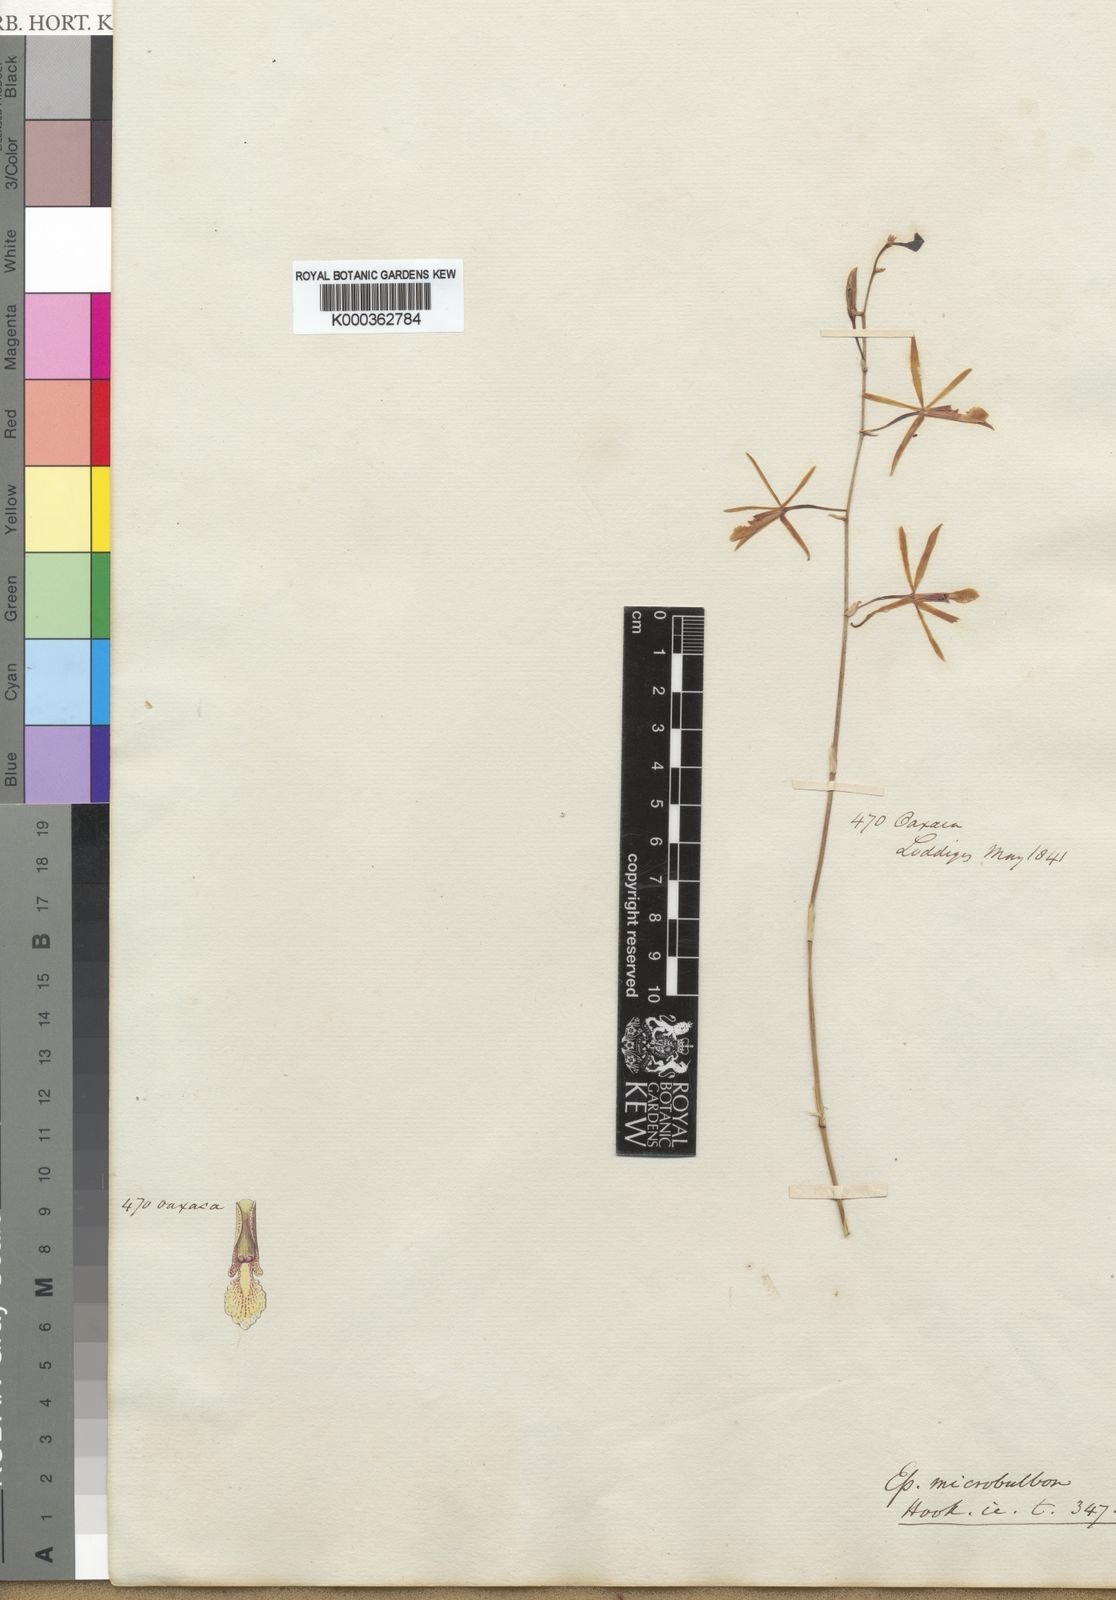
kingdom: Plantae
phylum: Tracheophyta
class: Liliopsida
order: Asparagales
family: Orchidaceae
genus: Encyclia
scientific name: Encyclia microbulbon
